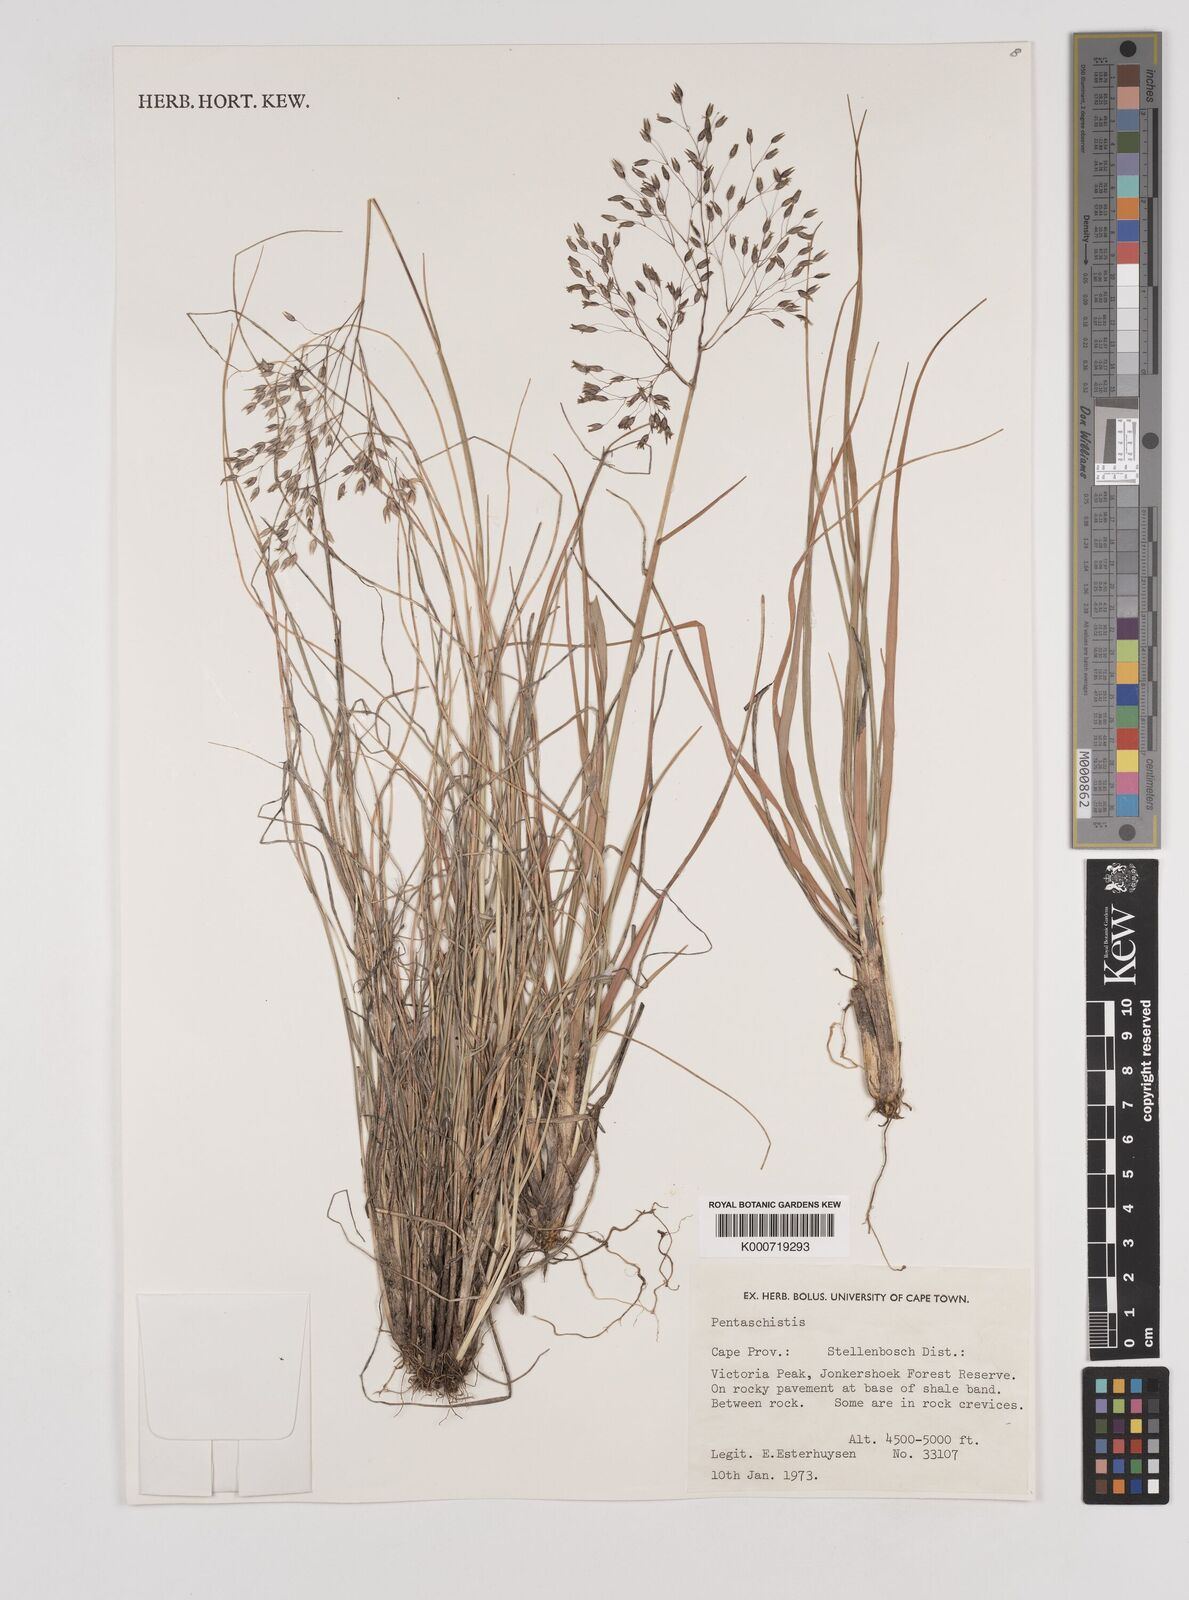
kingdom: Plantae
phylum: Tracheophyta
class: Liliopsida
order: Poales
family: Poaceae
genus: Pentameris
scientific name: Pentameris ampla
